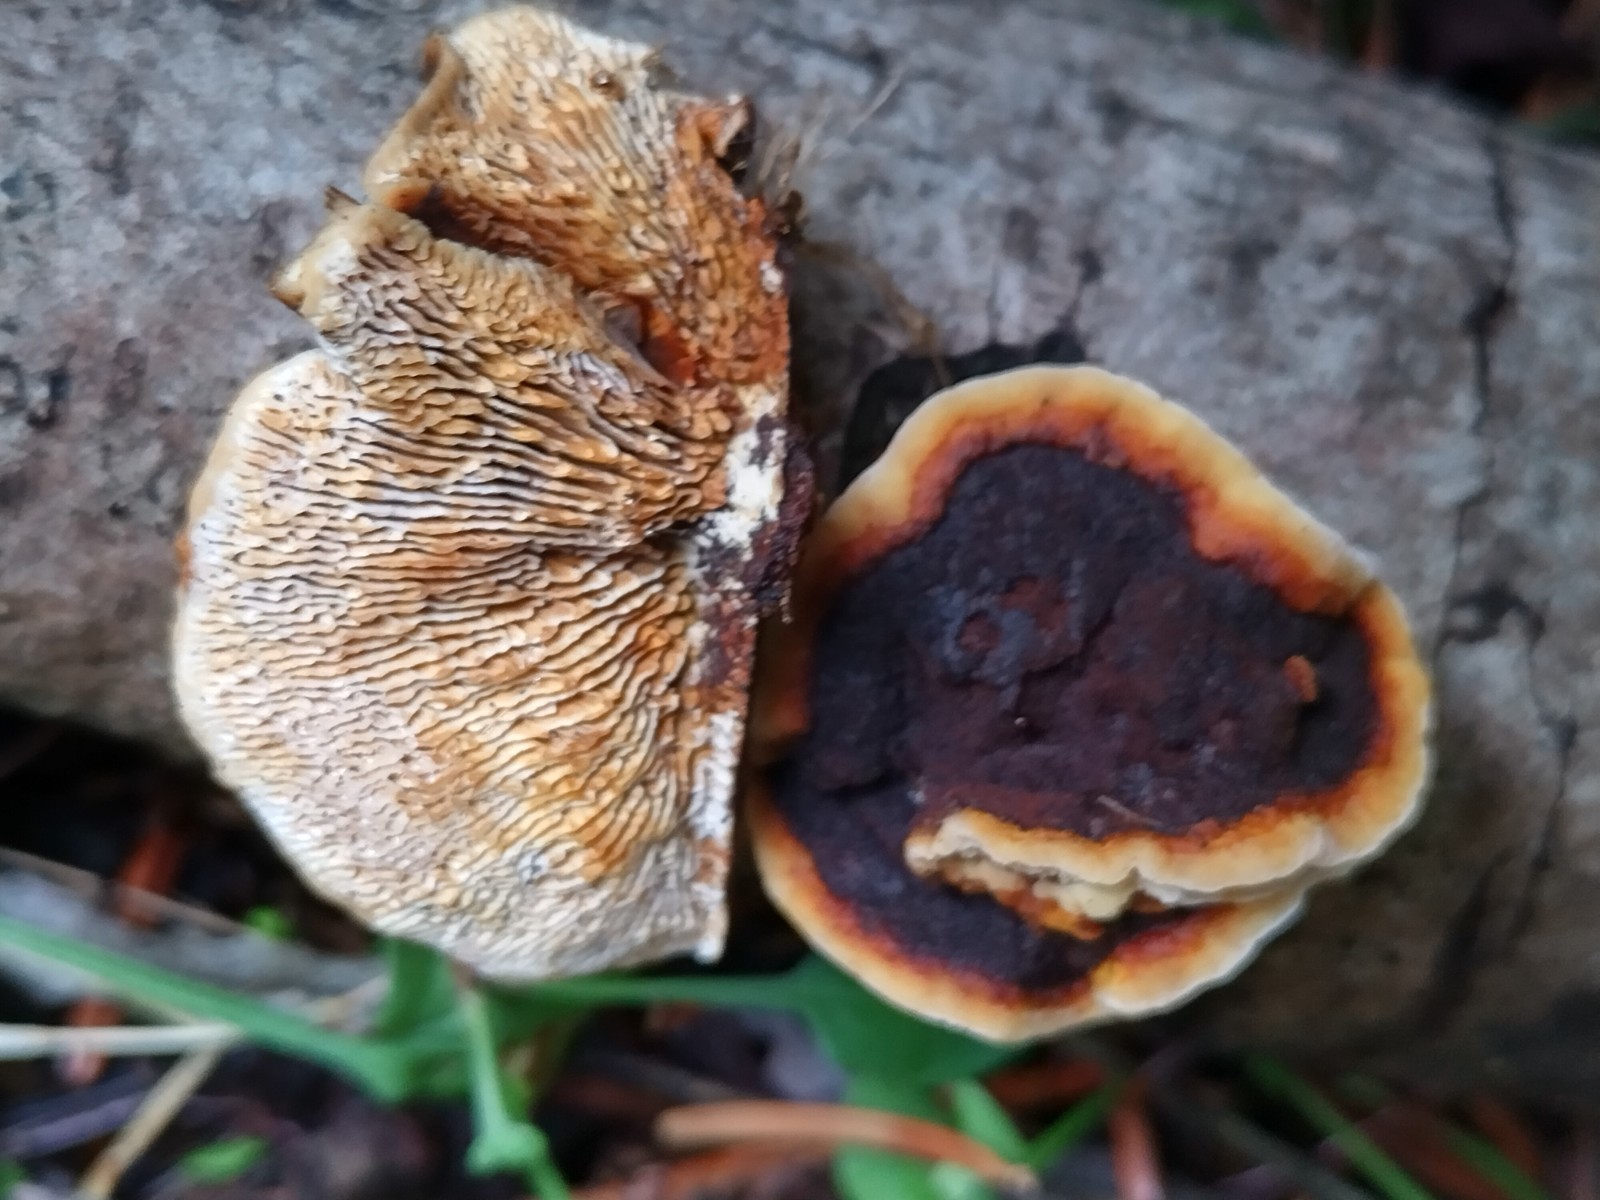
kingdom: Fungi
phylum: Basidiomycota
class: Agaricomycetes
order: Gloeophyllales
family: Gloeophyllaceae
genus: Gloeophyllum
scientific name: Gloeophyllum sepiarium
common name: fyrre-korkhat
